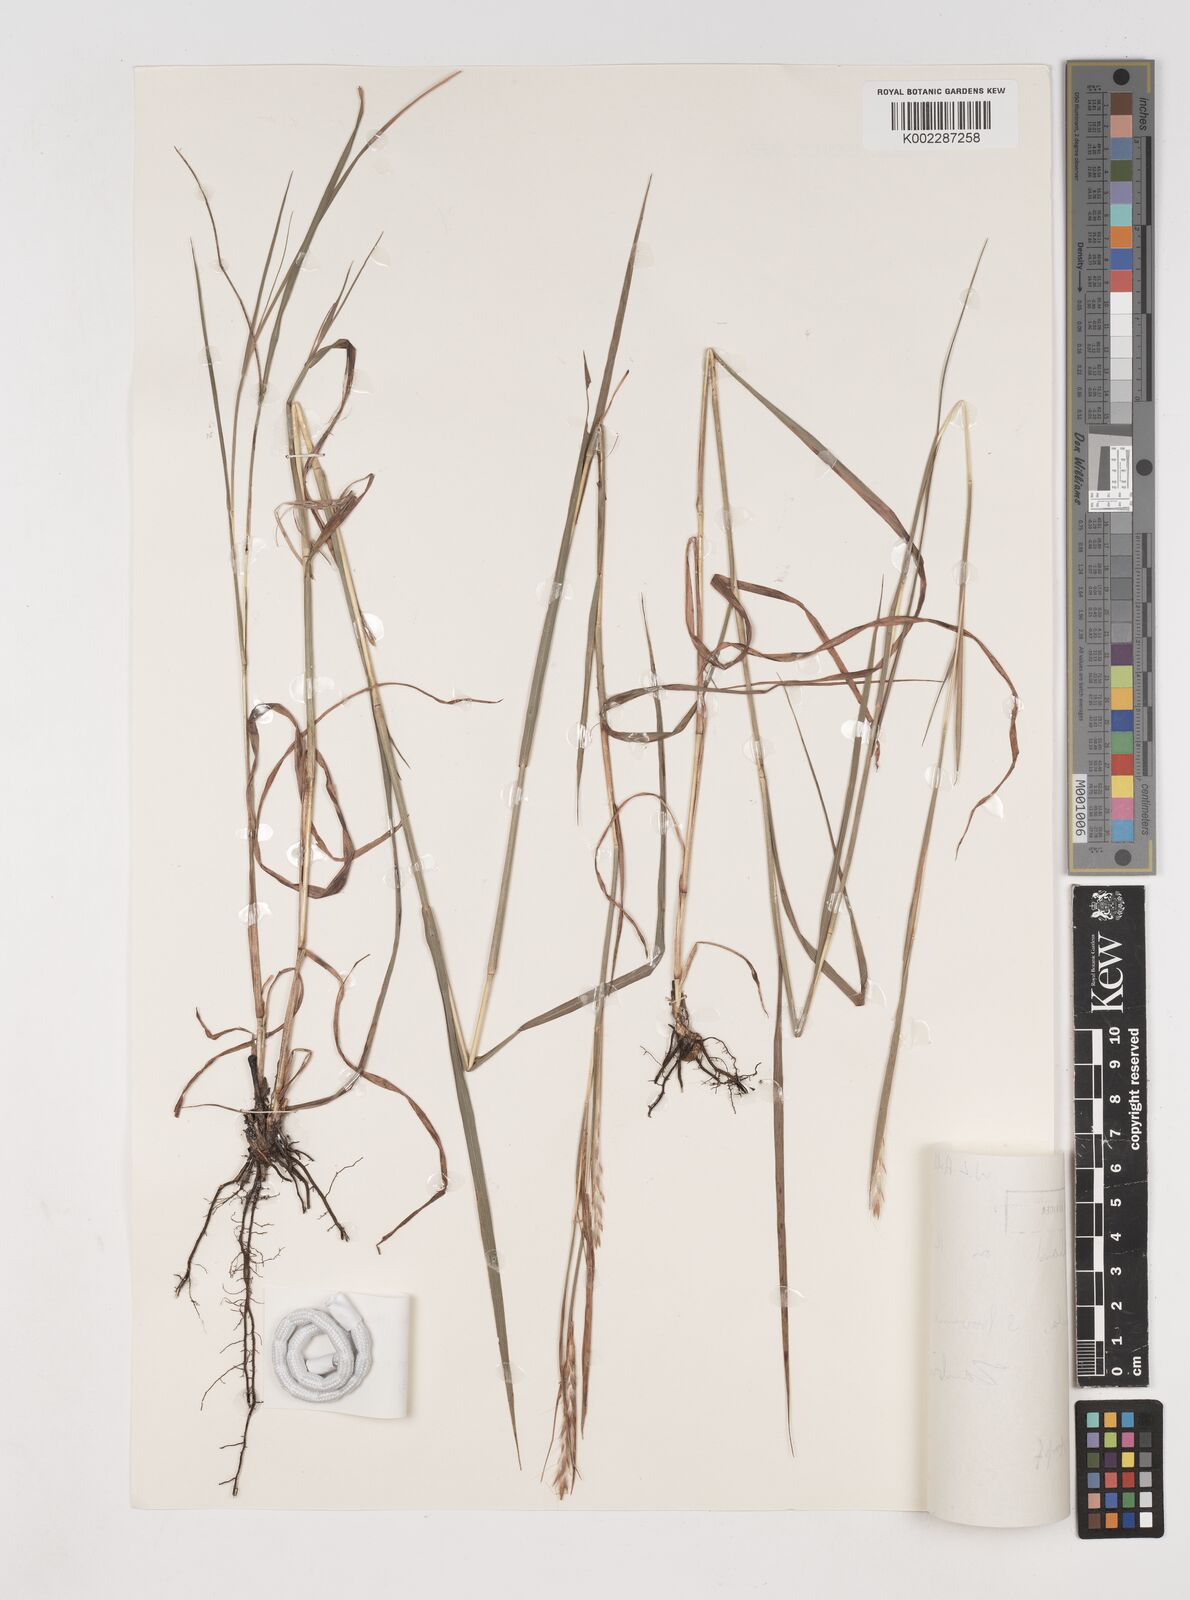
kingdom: Plantae
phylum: Tracheophyta
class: Liliopsida
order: Poales
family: Poaceae
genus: Schizachyrium
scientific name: Schizachyrium jeffreysii
